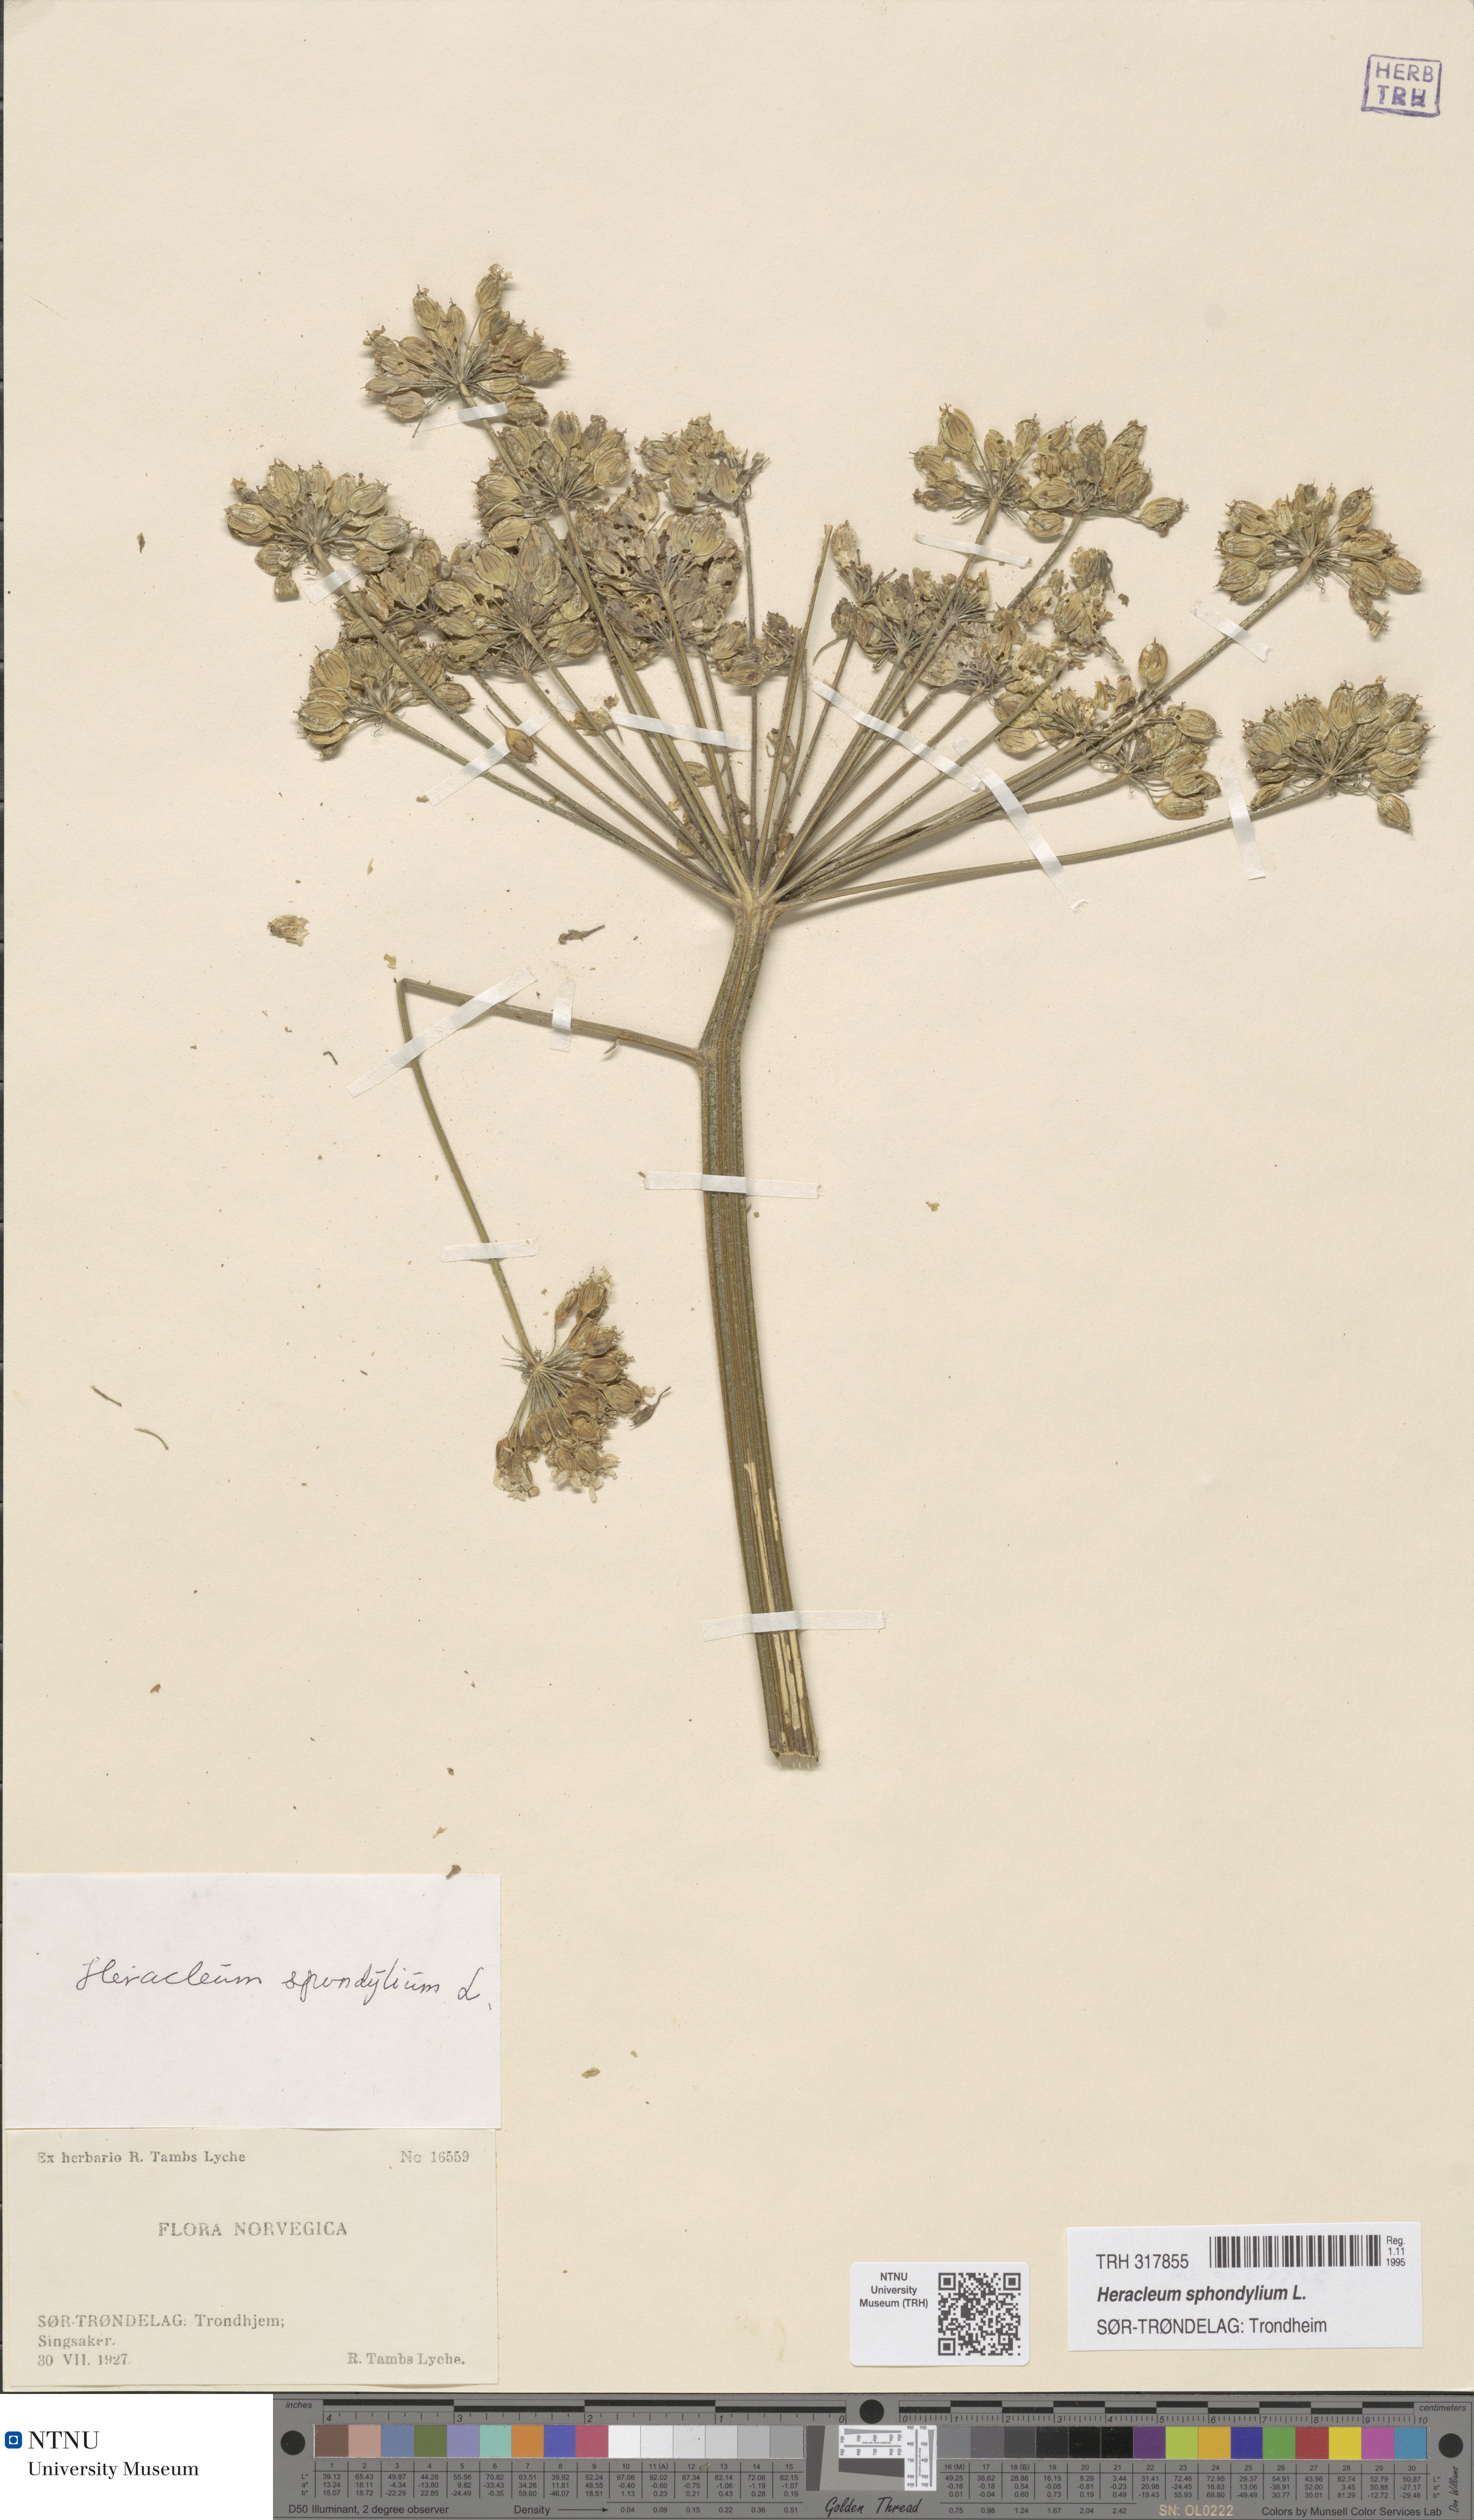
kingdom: Plantae
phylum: Tracheophyta
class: Magnoliopsida
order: Apiales
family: Apiaceae
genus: Heracleum
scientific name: Heracleum sphondylium
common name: Hogweed
